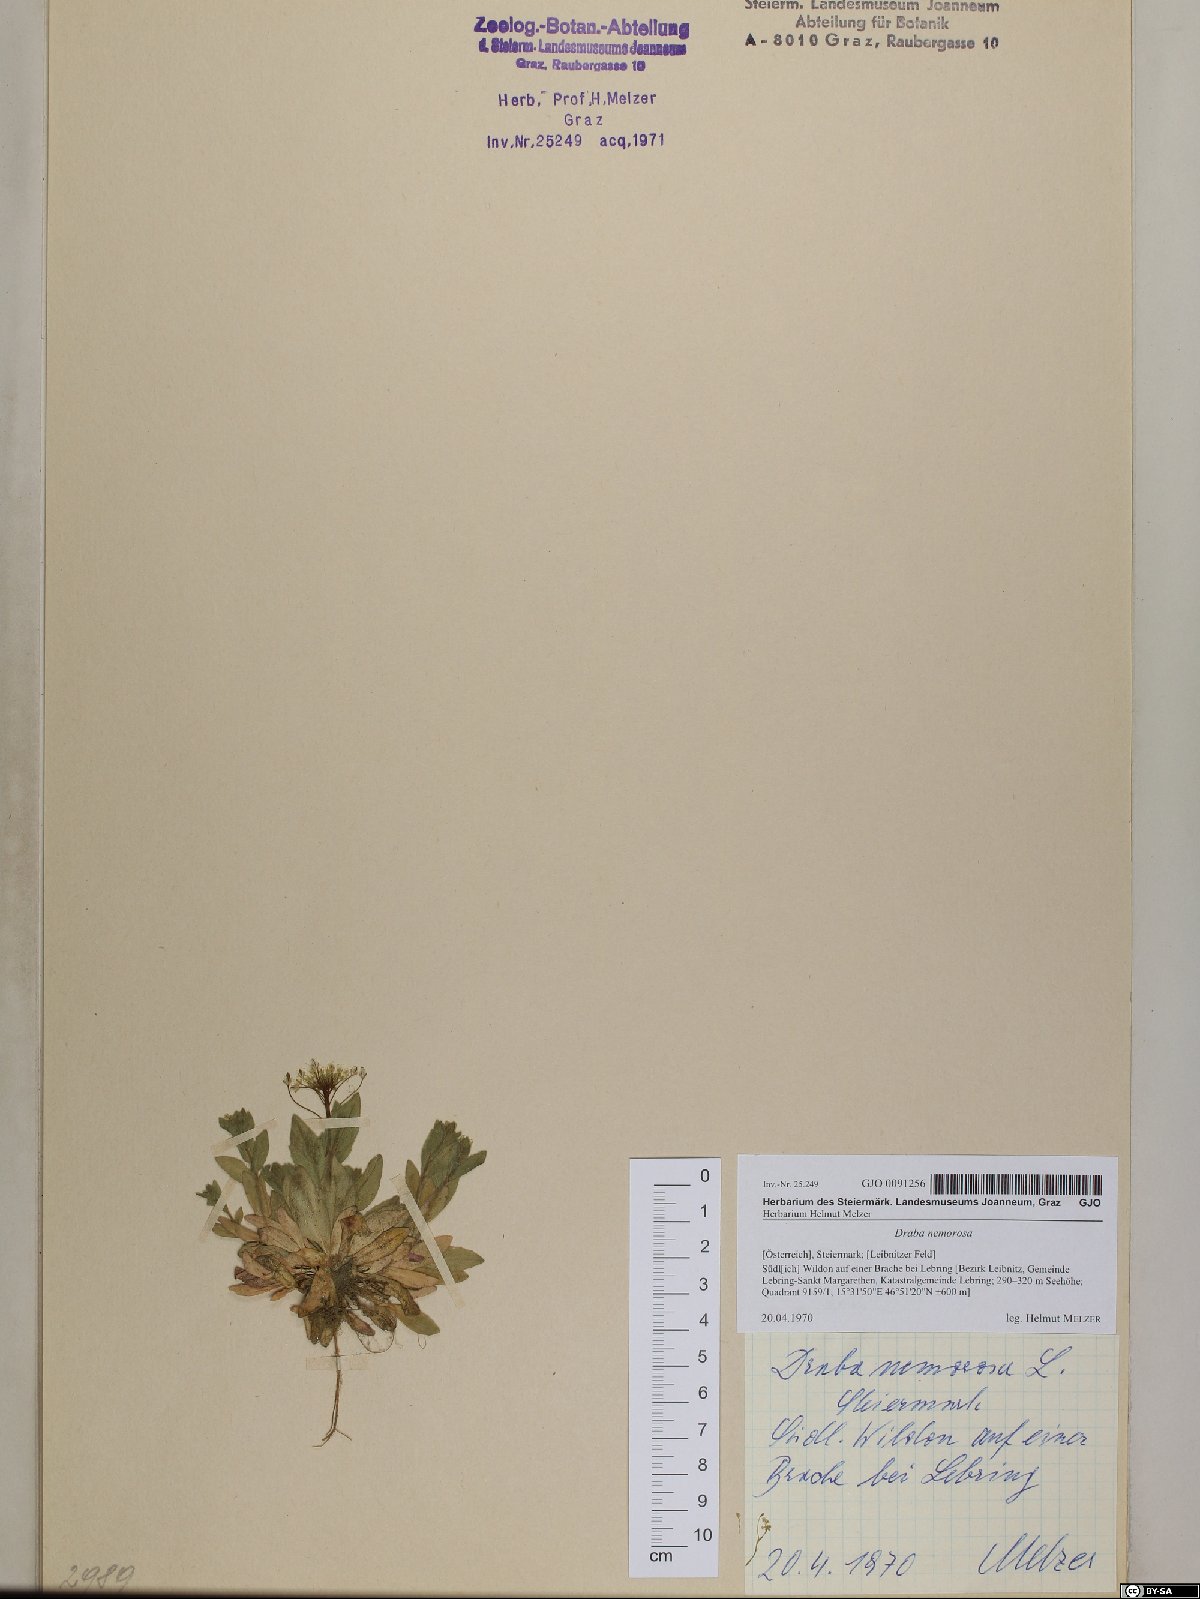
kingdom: Plantae
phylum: Tracheophyta
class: Magnoliopsida
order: Brassicales
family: Brassicaceae
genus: Draba
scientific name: Draba nemorosa
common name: Wood whitlow-grass
